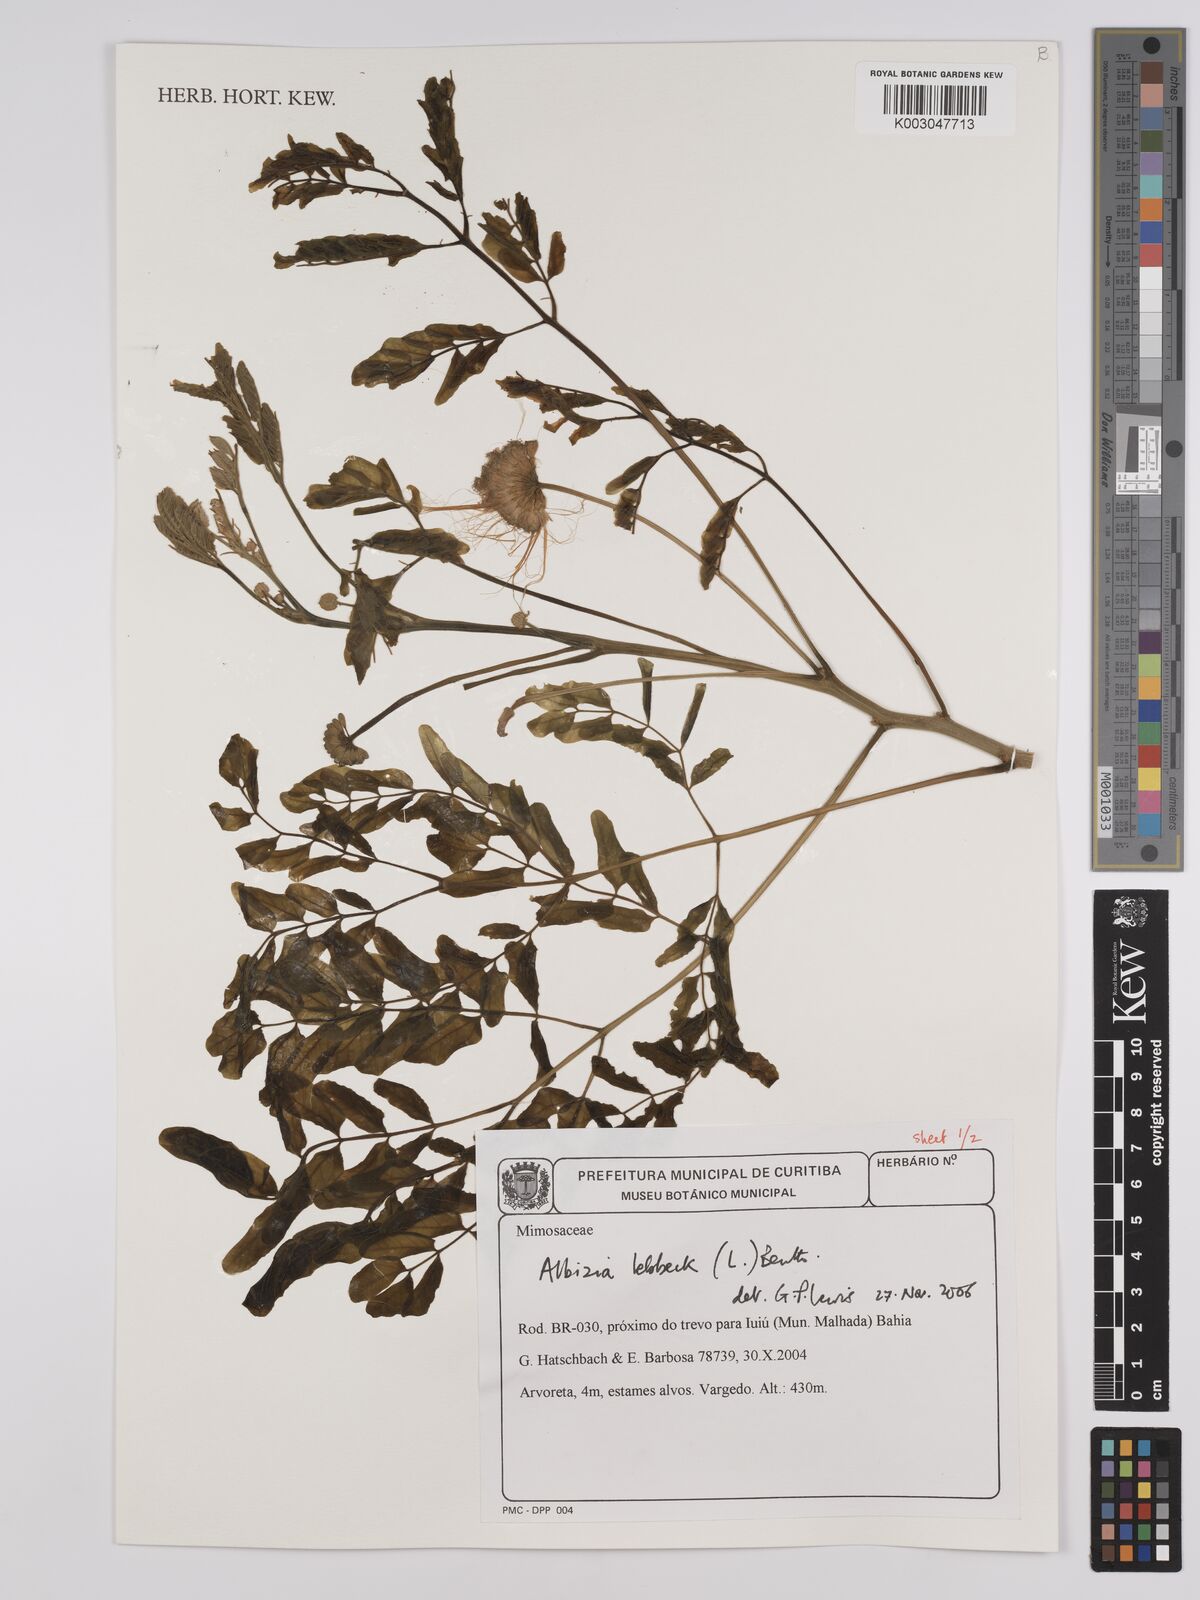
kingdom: Plantae
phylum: Tracheophyta
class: Magnoliopsida
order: Fabales
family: Fabaceae
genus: Albizia
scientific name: Albizia lebbeck
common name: Woman's tongue
